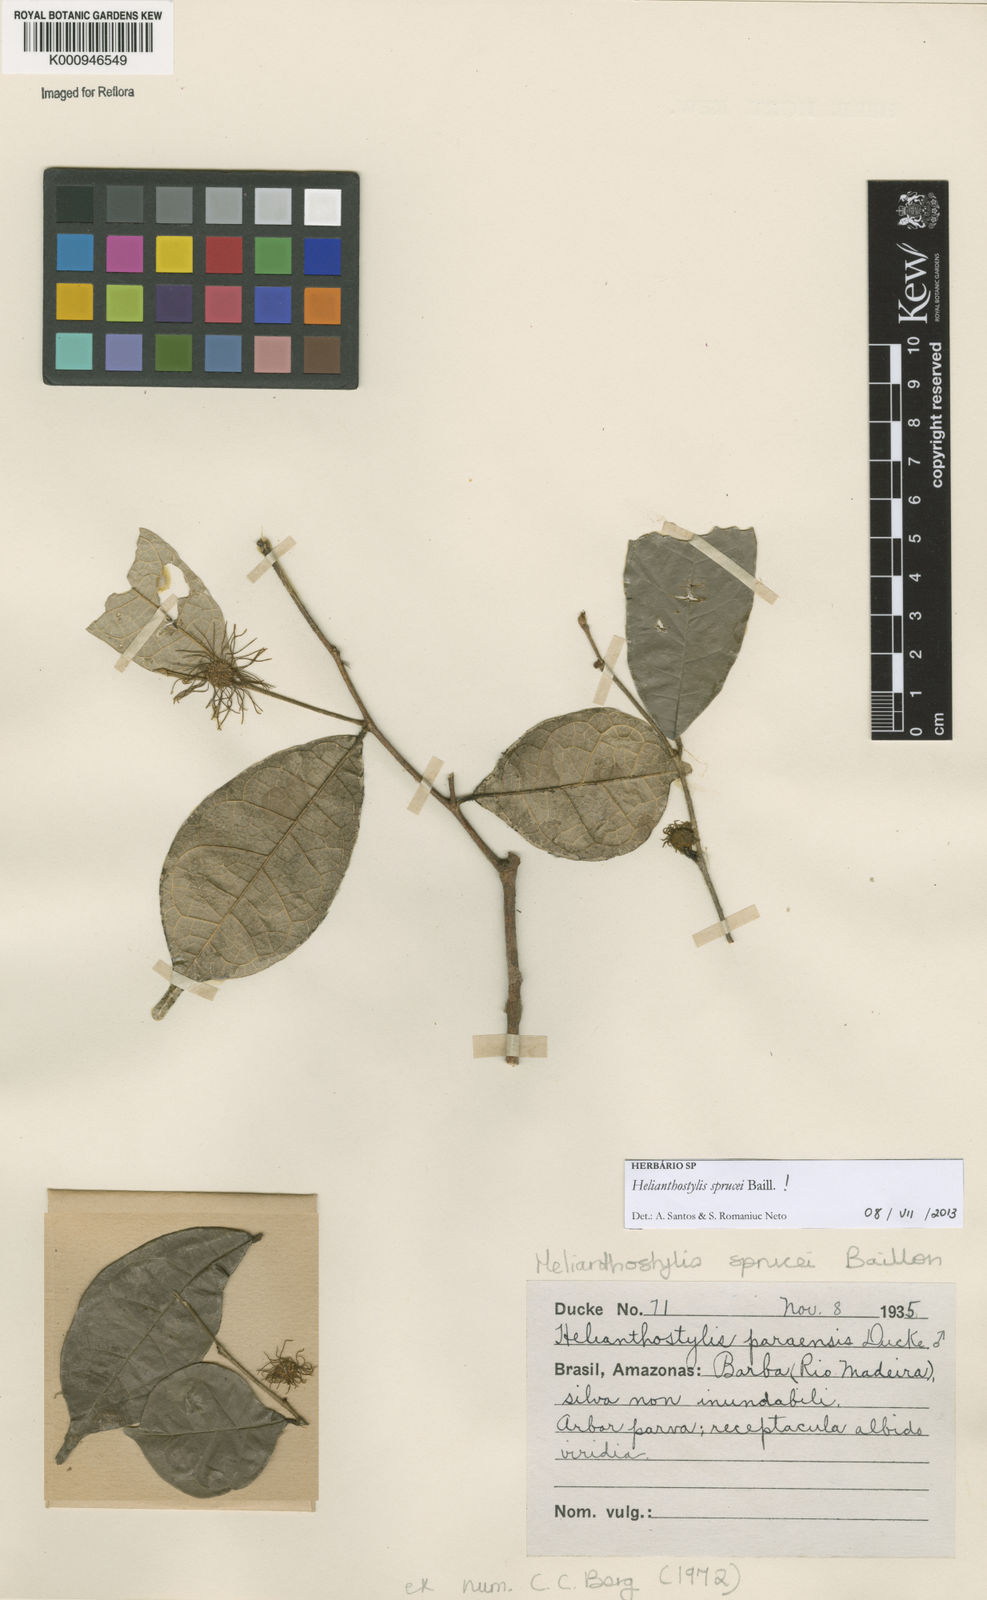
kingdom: Plantae
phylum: Tracheophyta
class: Magnoliopsida
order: Rosales
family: Moraceae
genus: Brosimum
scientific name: Brosimum sprucei
